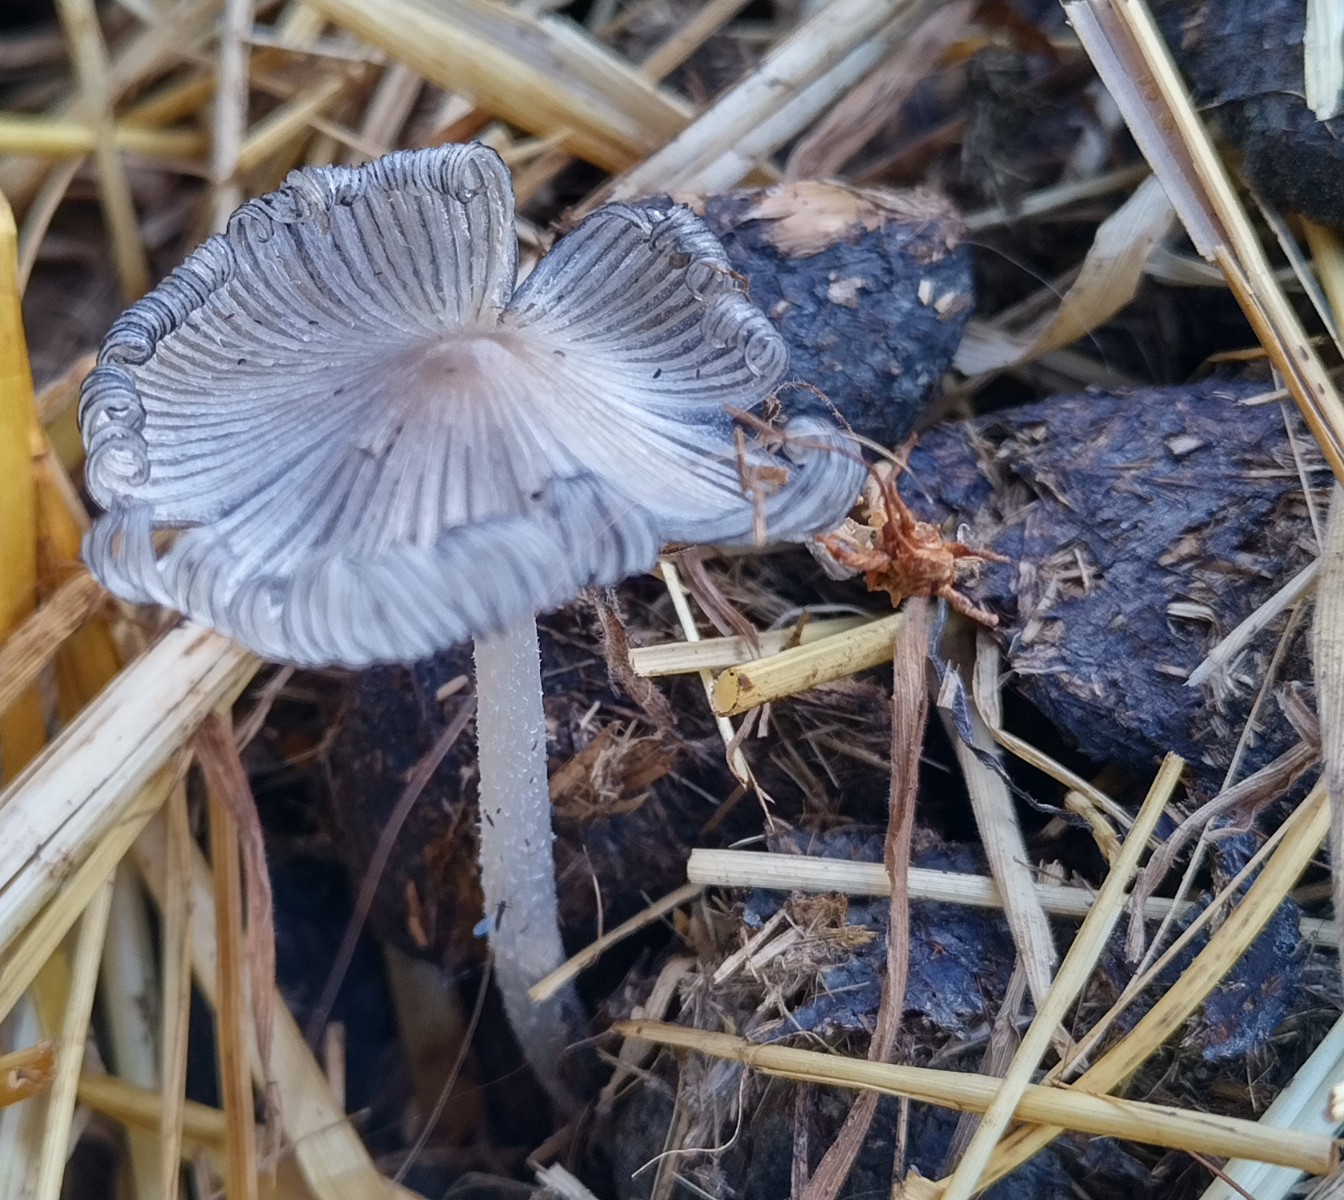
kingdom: Fungi
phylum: Basidiomycota
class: Agaricomycetes
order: Agaricales
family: Psathyrellaceae
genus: Coprinopsis
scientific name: Coprinopsis
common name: blækhat
